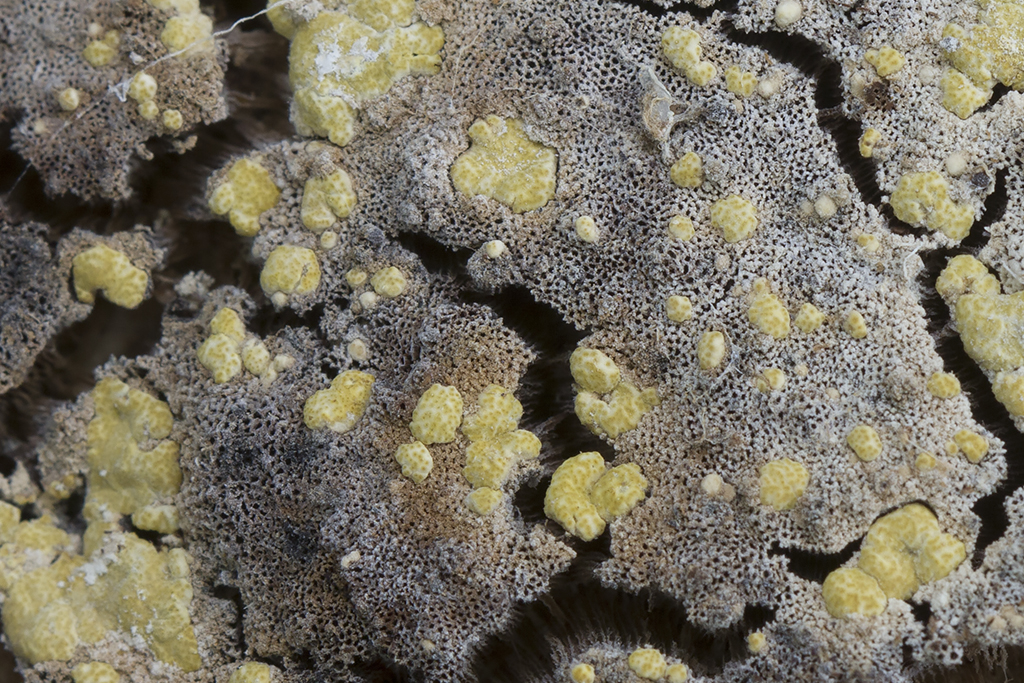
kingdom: Fungi
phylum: Ascomycota
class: Sordariomycetes
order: Hypocreales
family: Hypocreaceae
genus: Trichoderma
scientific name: Trichoderma pulvinatum
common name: snyltende kødkerne
